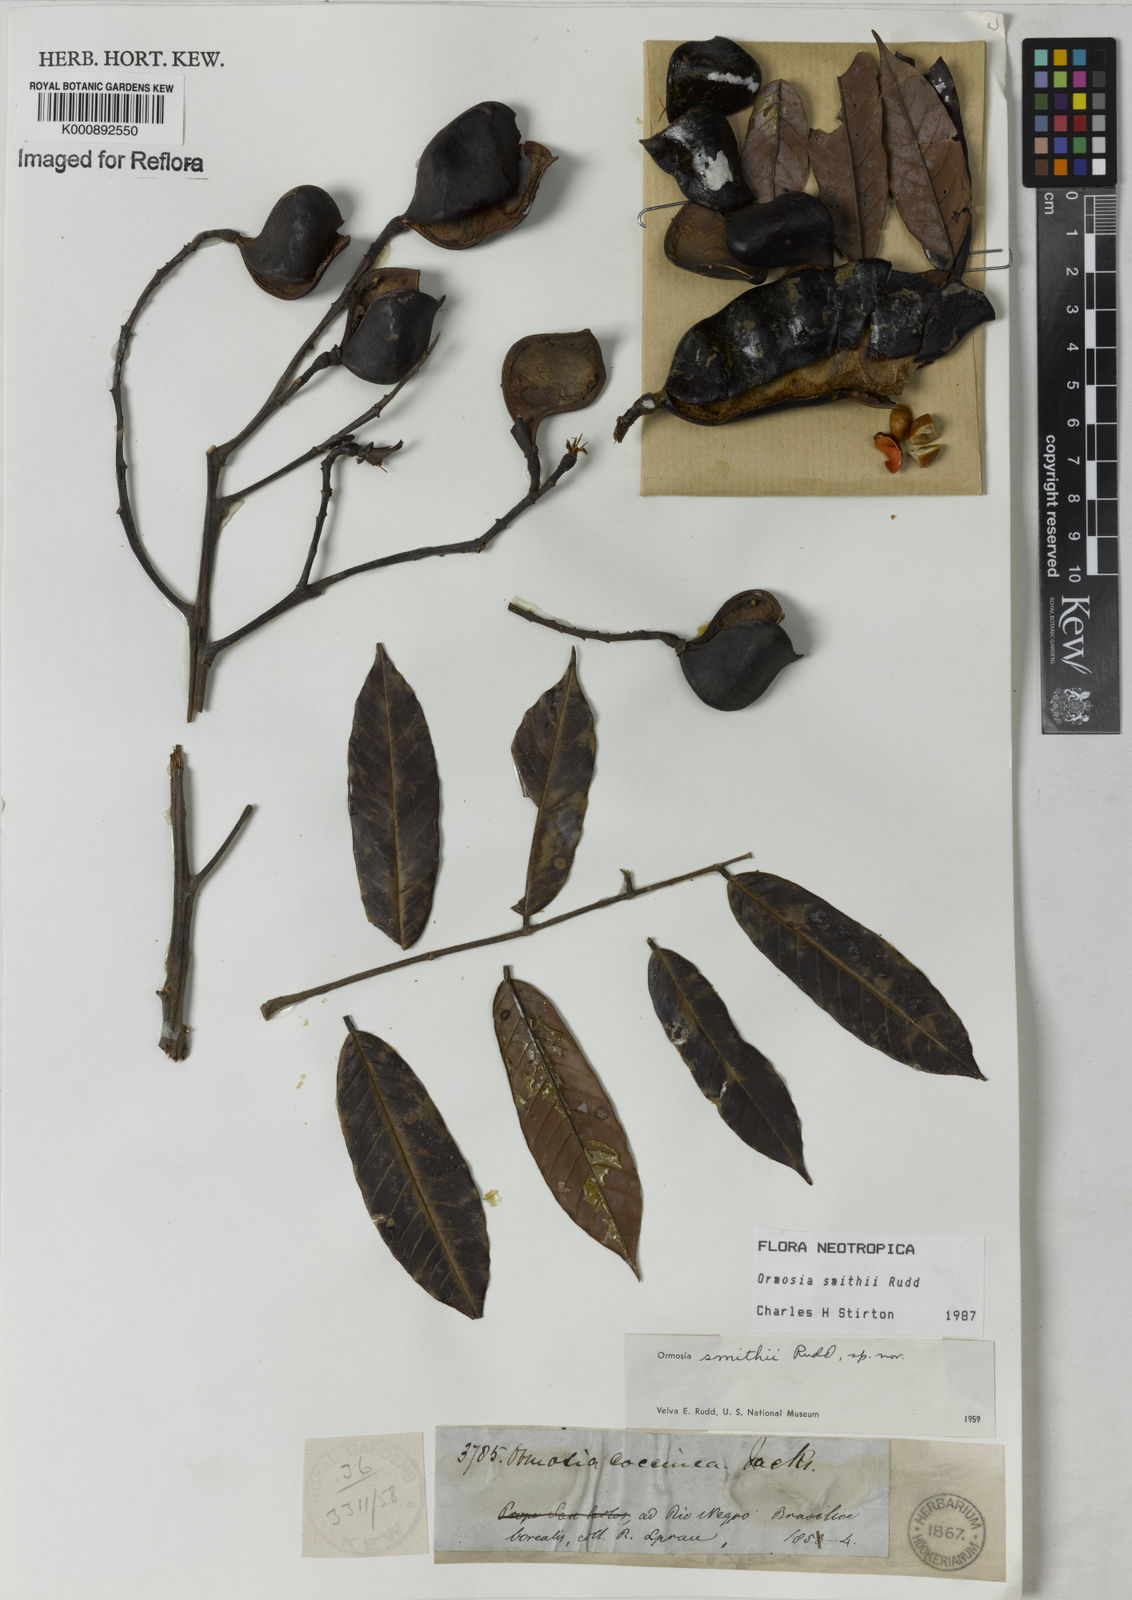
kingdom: Plantae
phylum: Tracheophyta
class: Magnoliopsida
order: Fabales
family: Fabaceae
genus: Ormosia
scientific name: Ormosia smithii
